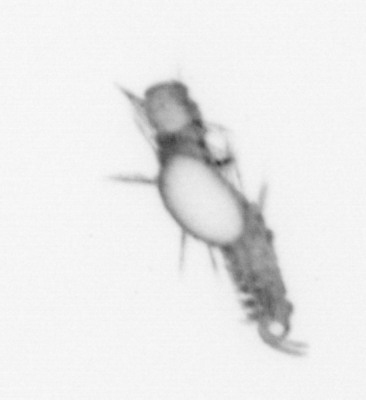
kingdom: Animalia
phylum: Annelida
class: Polychaeta
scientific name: Polychaeta
